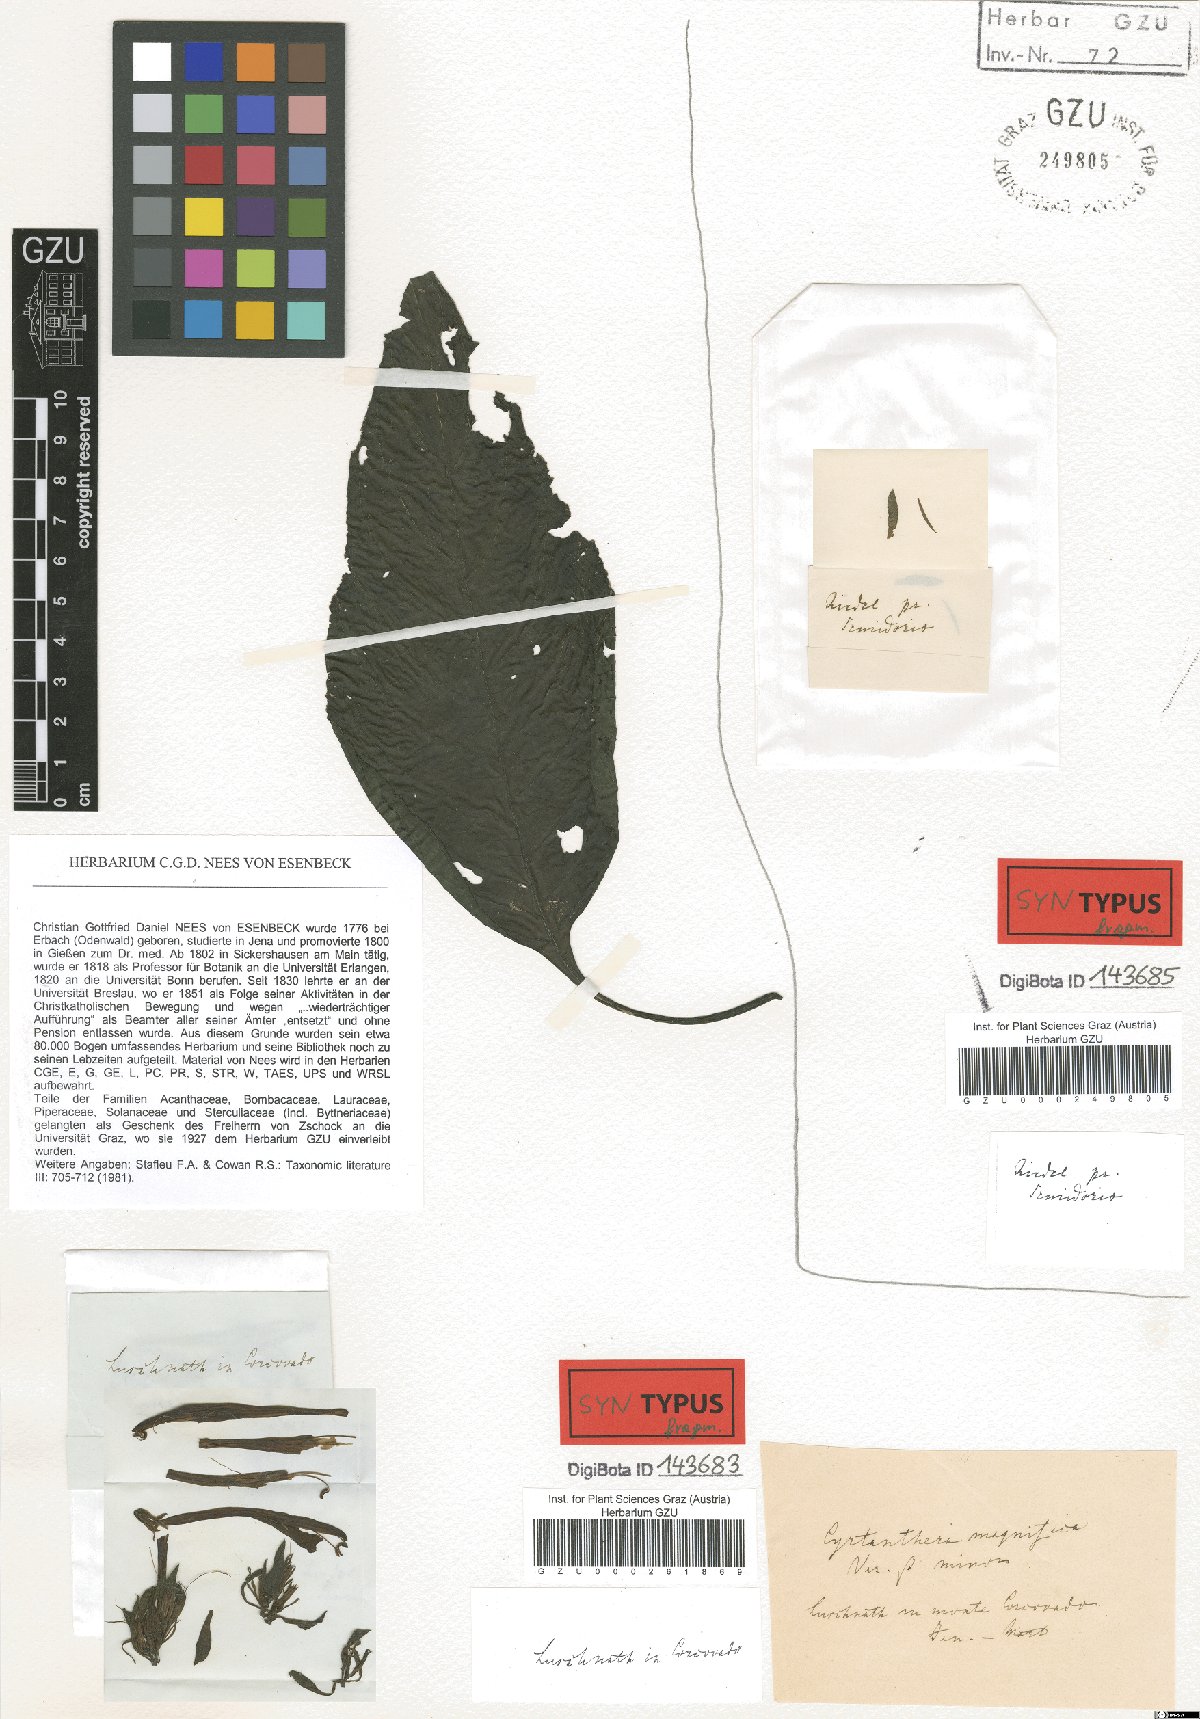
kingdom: Plantae
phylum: Tracheophyta
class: Magnoliopsida
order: Lamiales
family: Acanthaceae
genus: Justicia
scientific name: Justicia carnea
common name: Brazilian-plume
